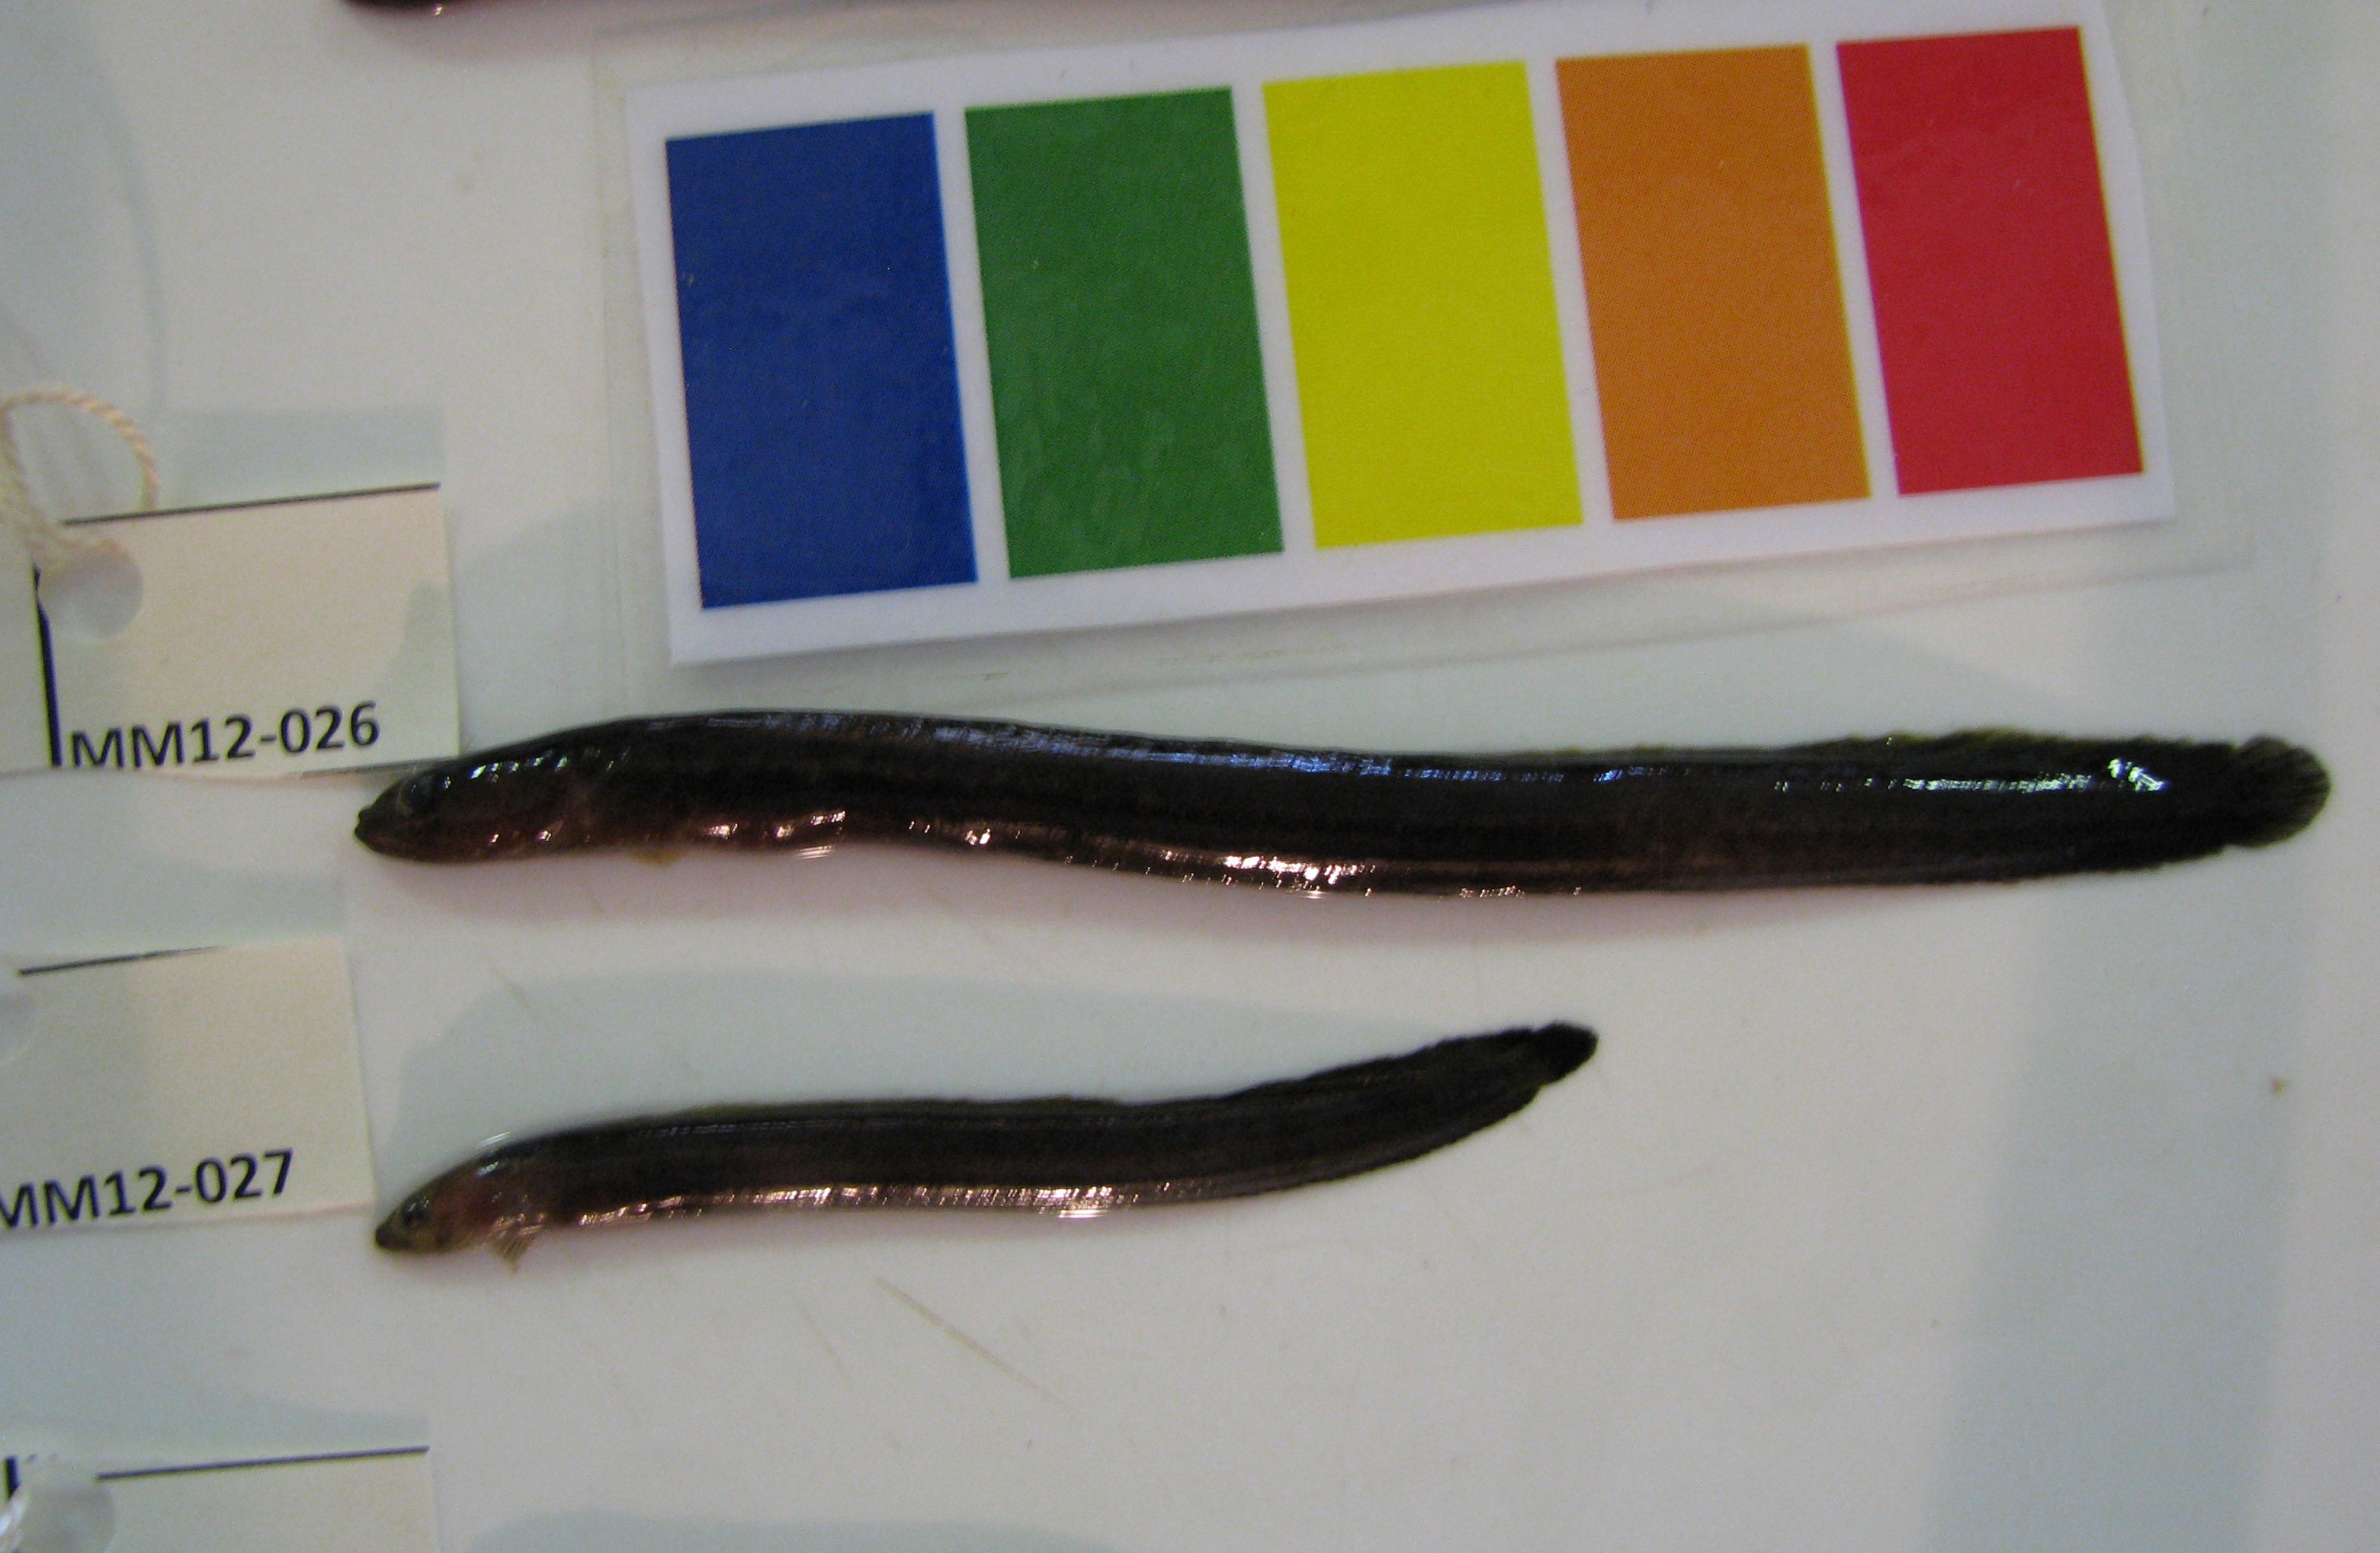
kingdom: Animalia
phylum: Chordata
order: Perciformes
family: Pseudochromidae
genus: Halidesmus
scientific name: Halidesmus scapularis
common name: Snakelet
